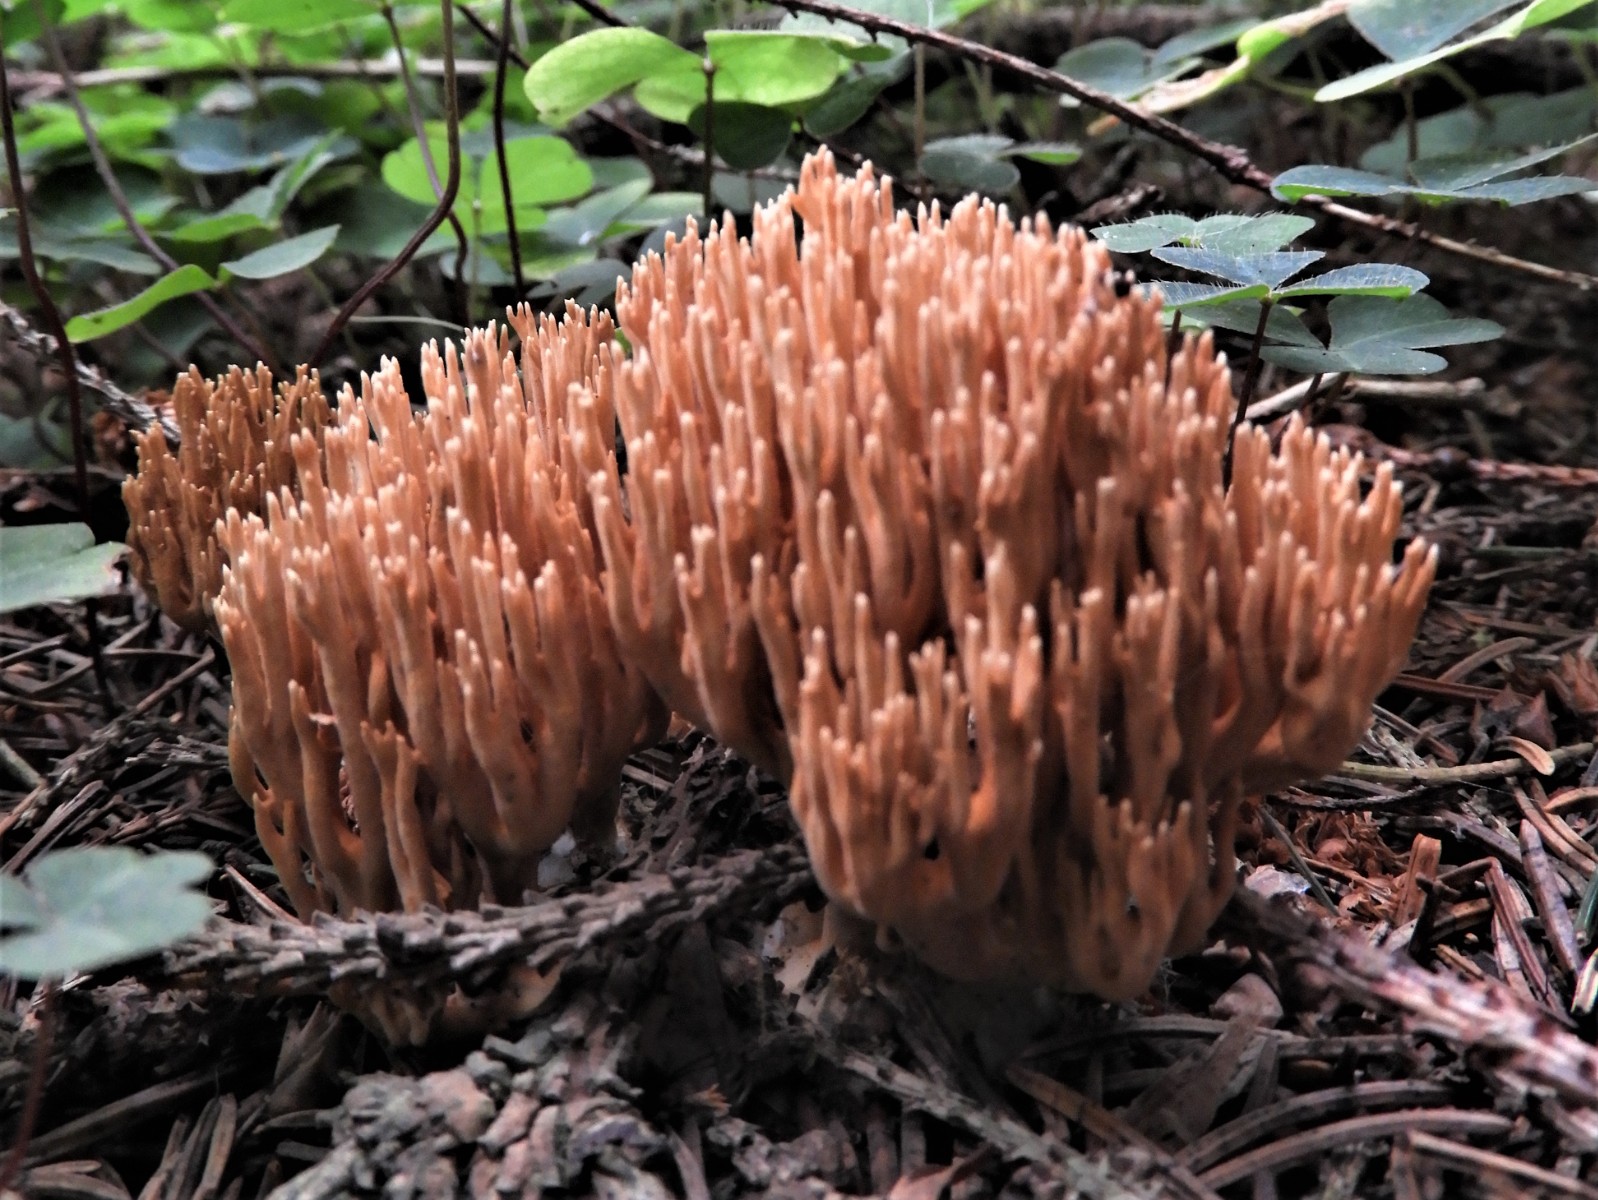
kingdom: Fungi
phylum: Basidiomycota
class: Agaricomycetes
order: Gomphales
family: Gomphaceae
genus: Phaeoclavulina
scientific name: Phaeoclavulina eumorpha
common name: gran-koralsvamp
